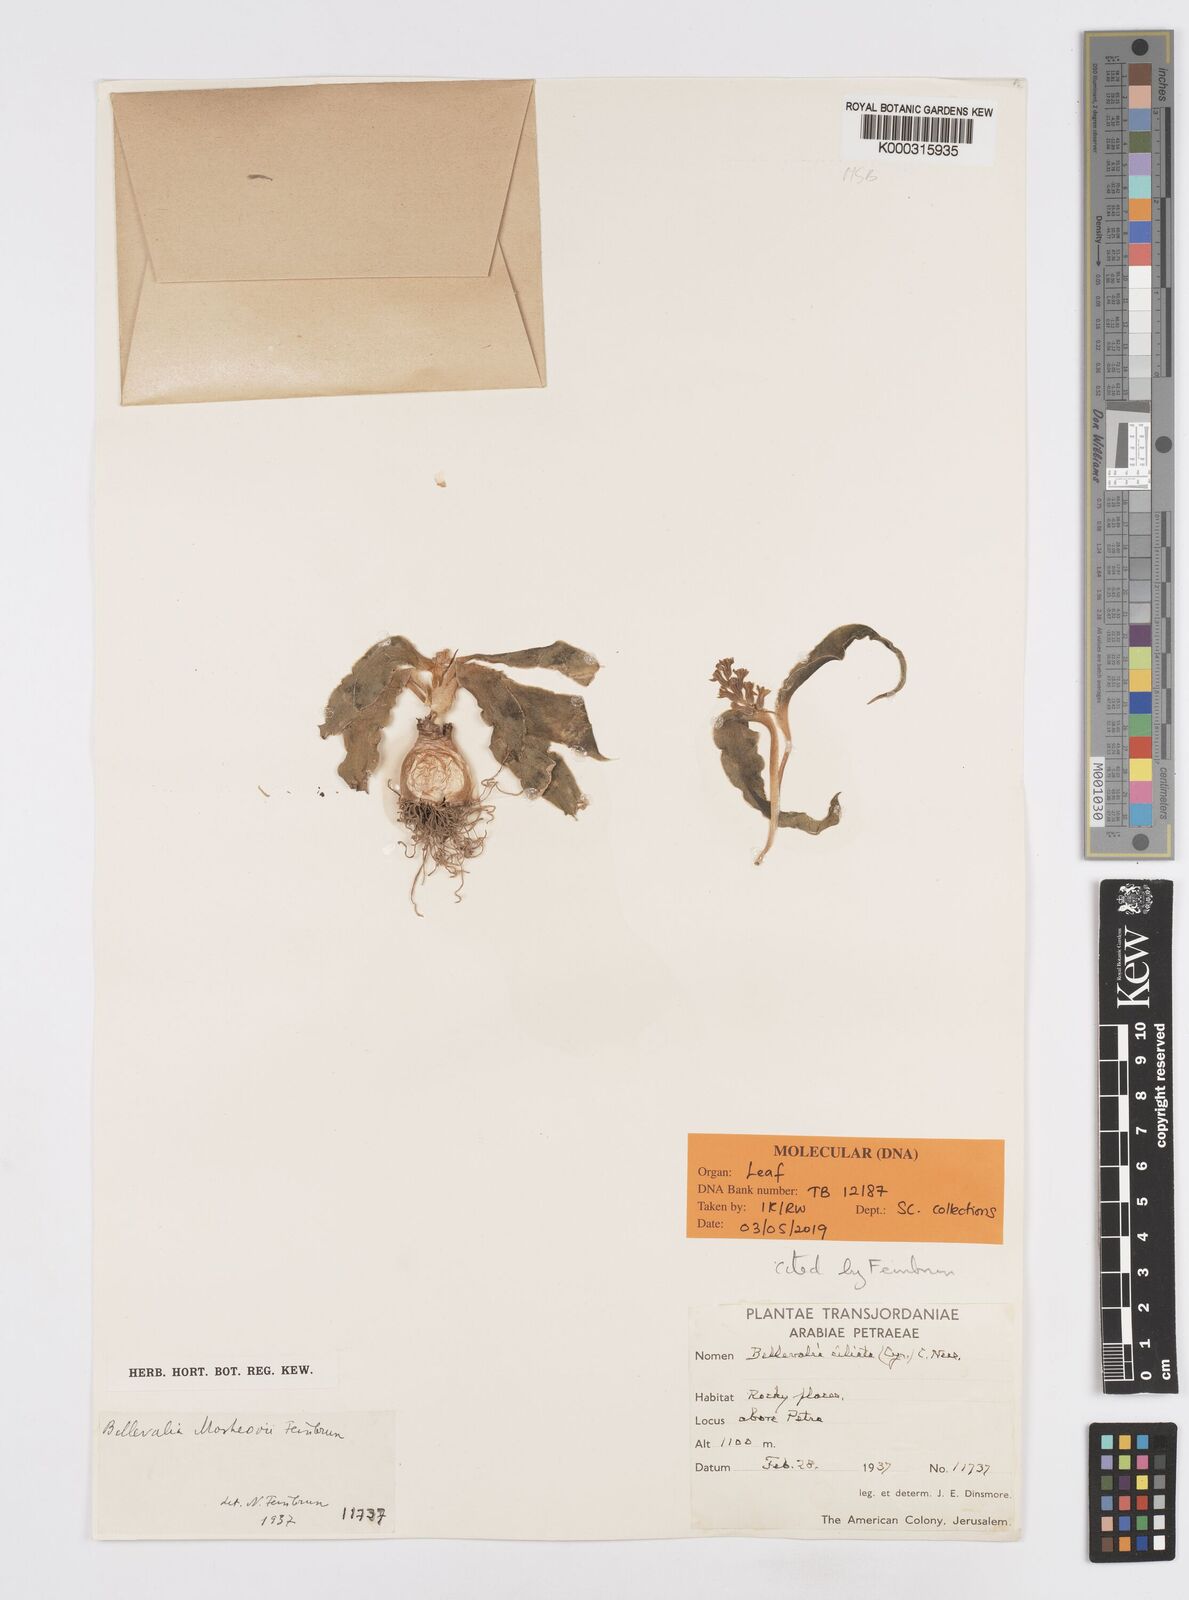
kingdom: Plantae
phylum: Tracheophyta
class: Liliopsida
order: Asparagales
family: Asparagaceae
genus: Bellevalia
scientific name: Bellevalia mosheovii
